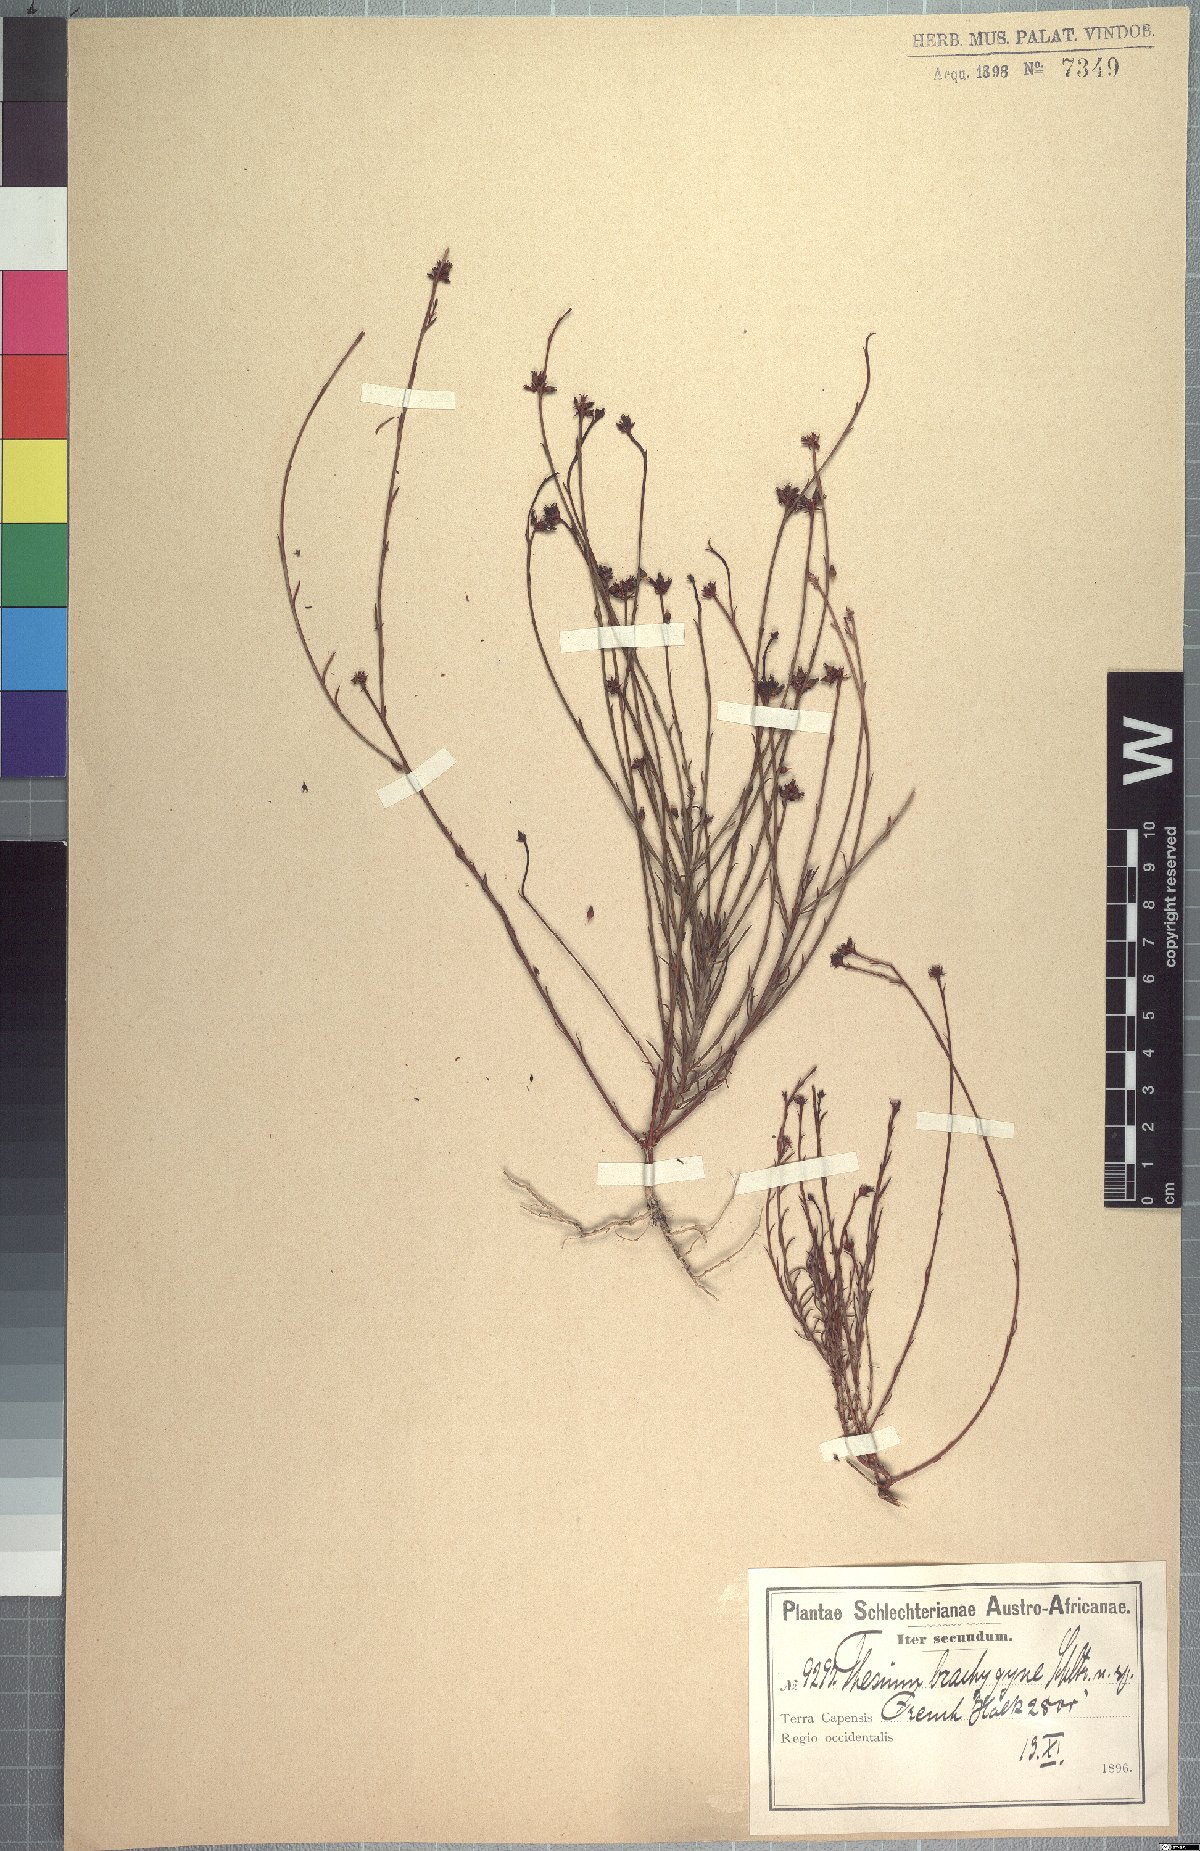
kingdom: Plantae
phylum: Tracheophyta
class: Magnoliopsida
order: Santalales
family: Thesiaceae
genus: Thesium
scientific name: Thesium brachygyne
